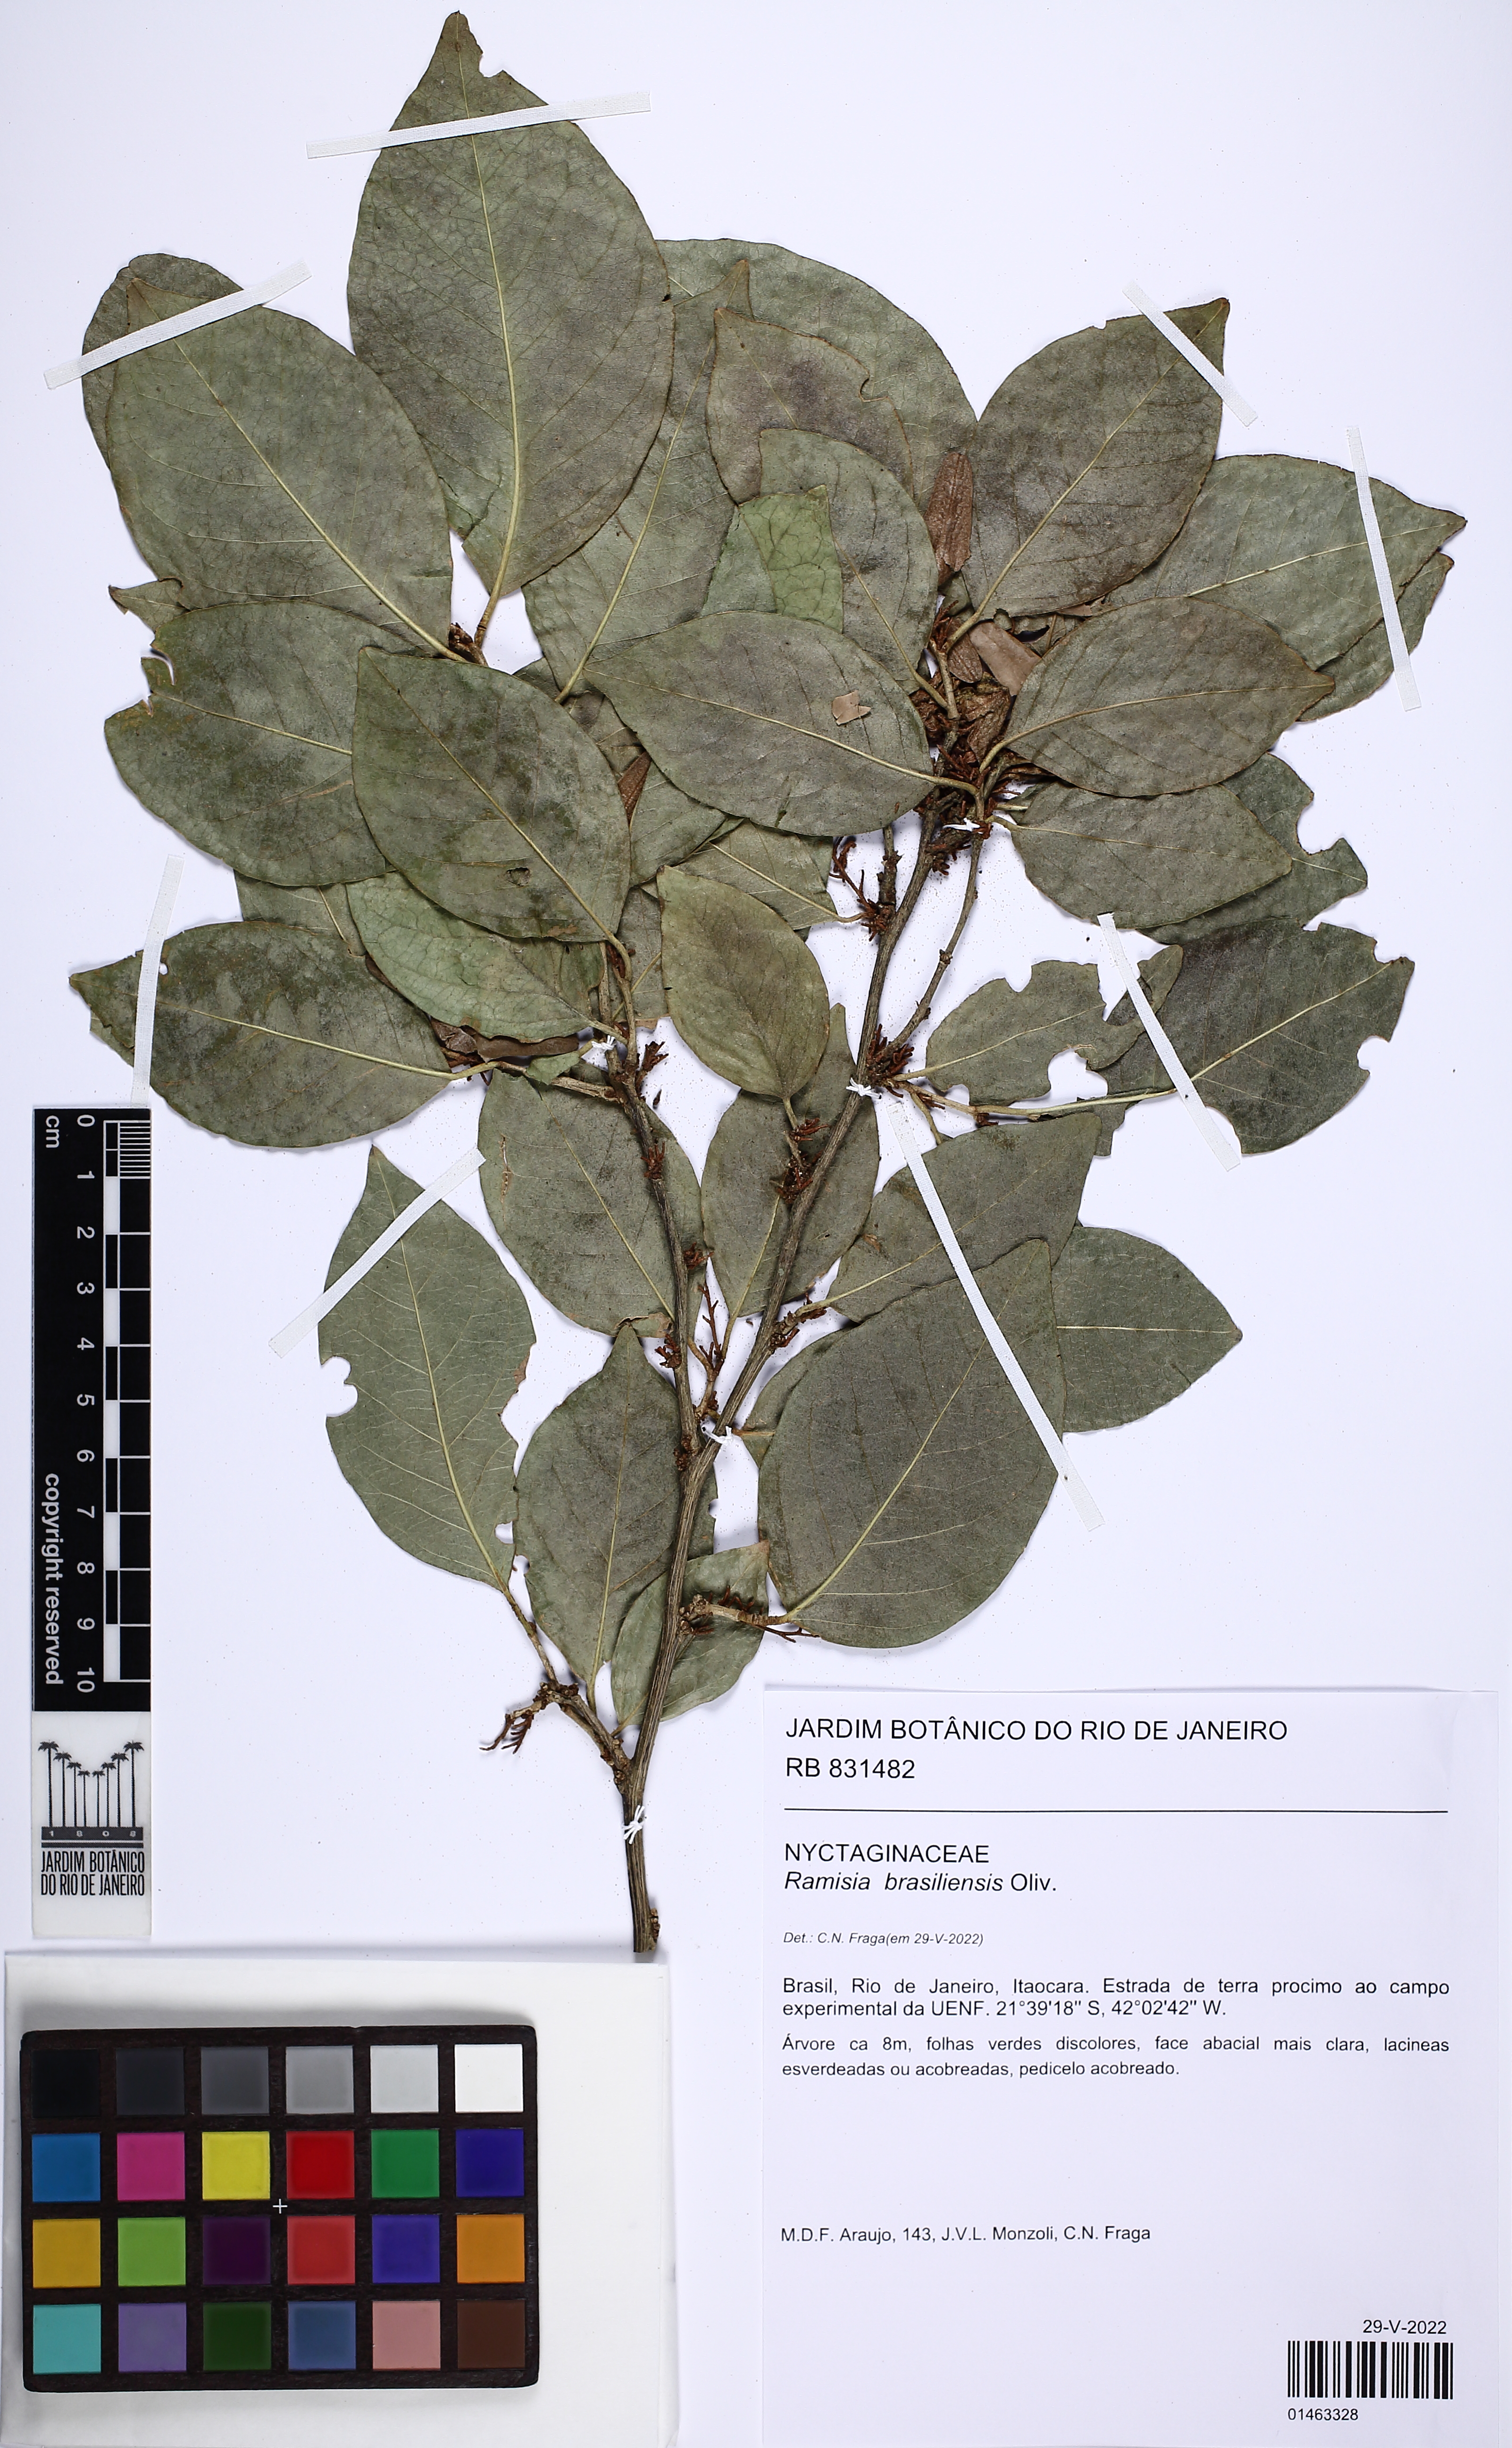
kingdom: Plantae
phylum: Tracheophyta
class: Magnoliopsida
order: Caryophyllales
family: Nyctaginaceae
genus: Ramisia
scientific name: Ramisia brasiliensis
